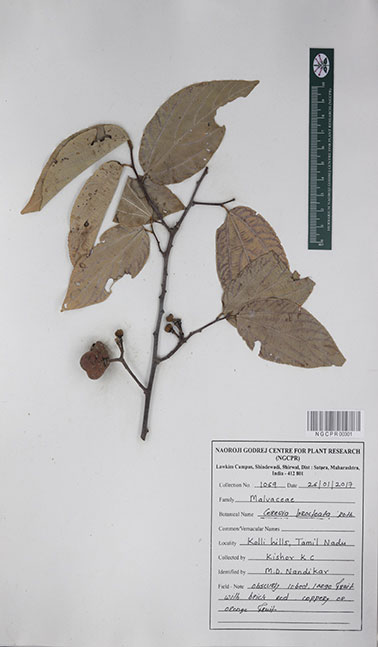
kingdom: Plantae
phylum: Tracheophyta
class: Magnoliopsida
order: Malvales
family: Malvaceae
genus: Grewia
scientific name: Grewia bracteata
